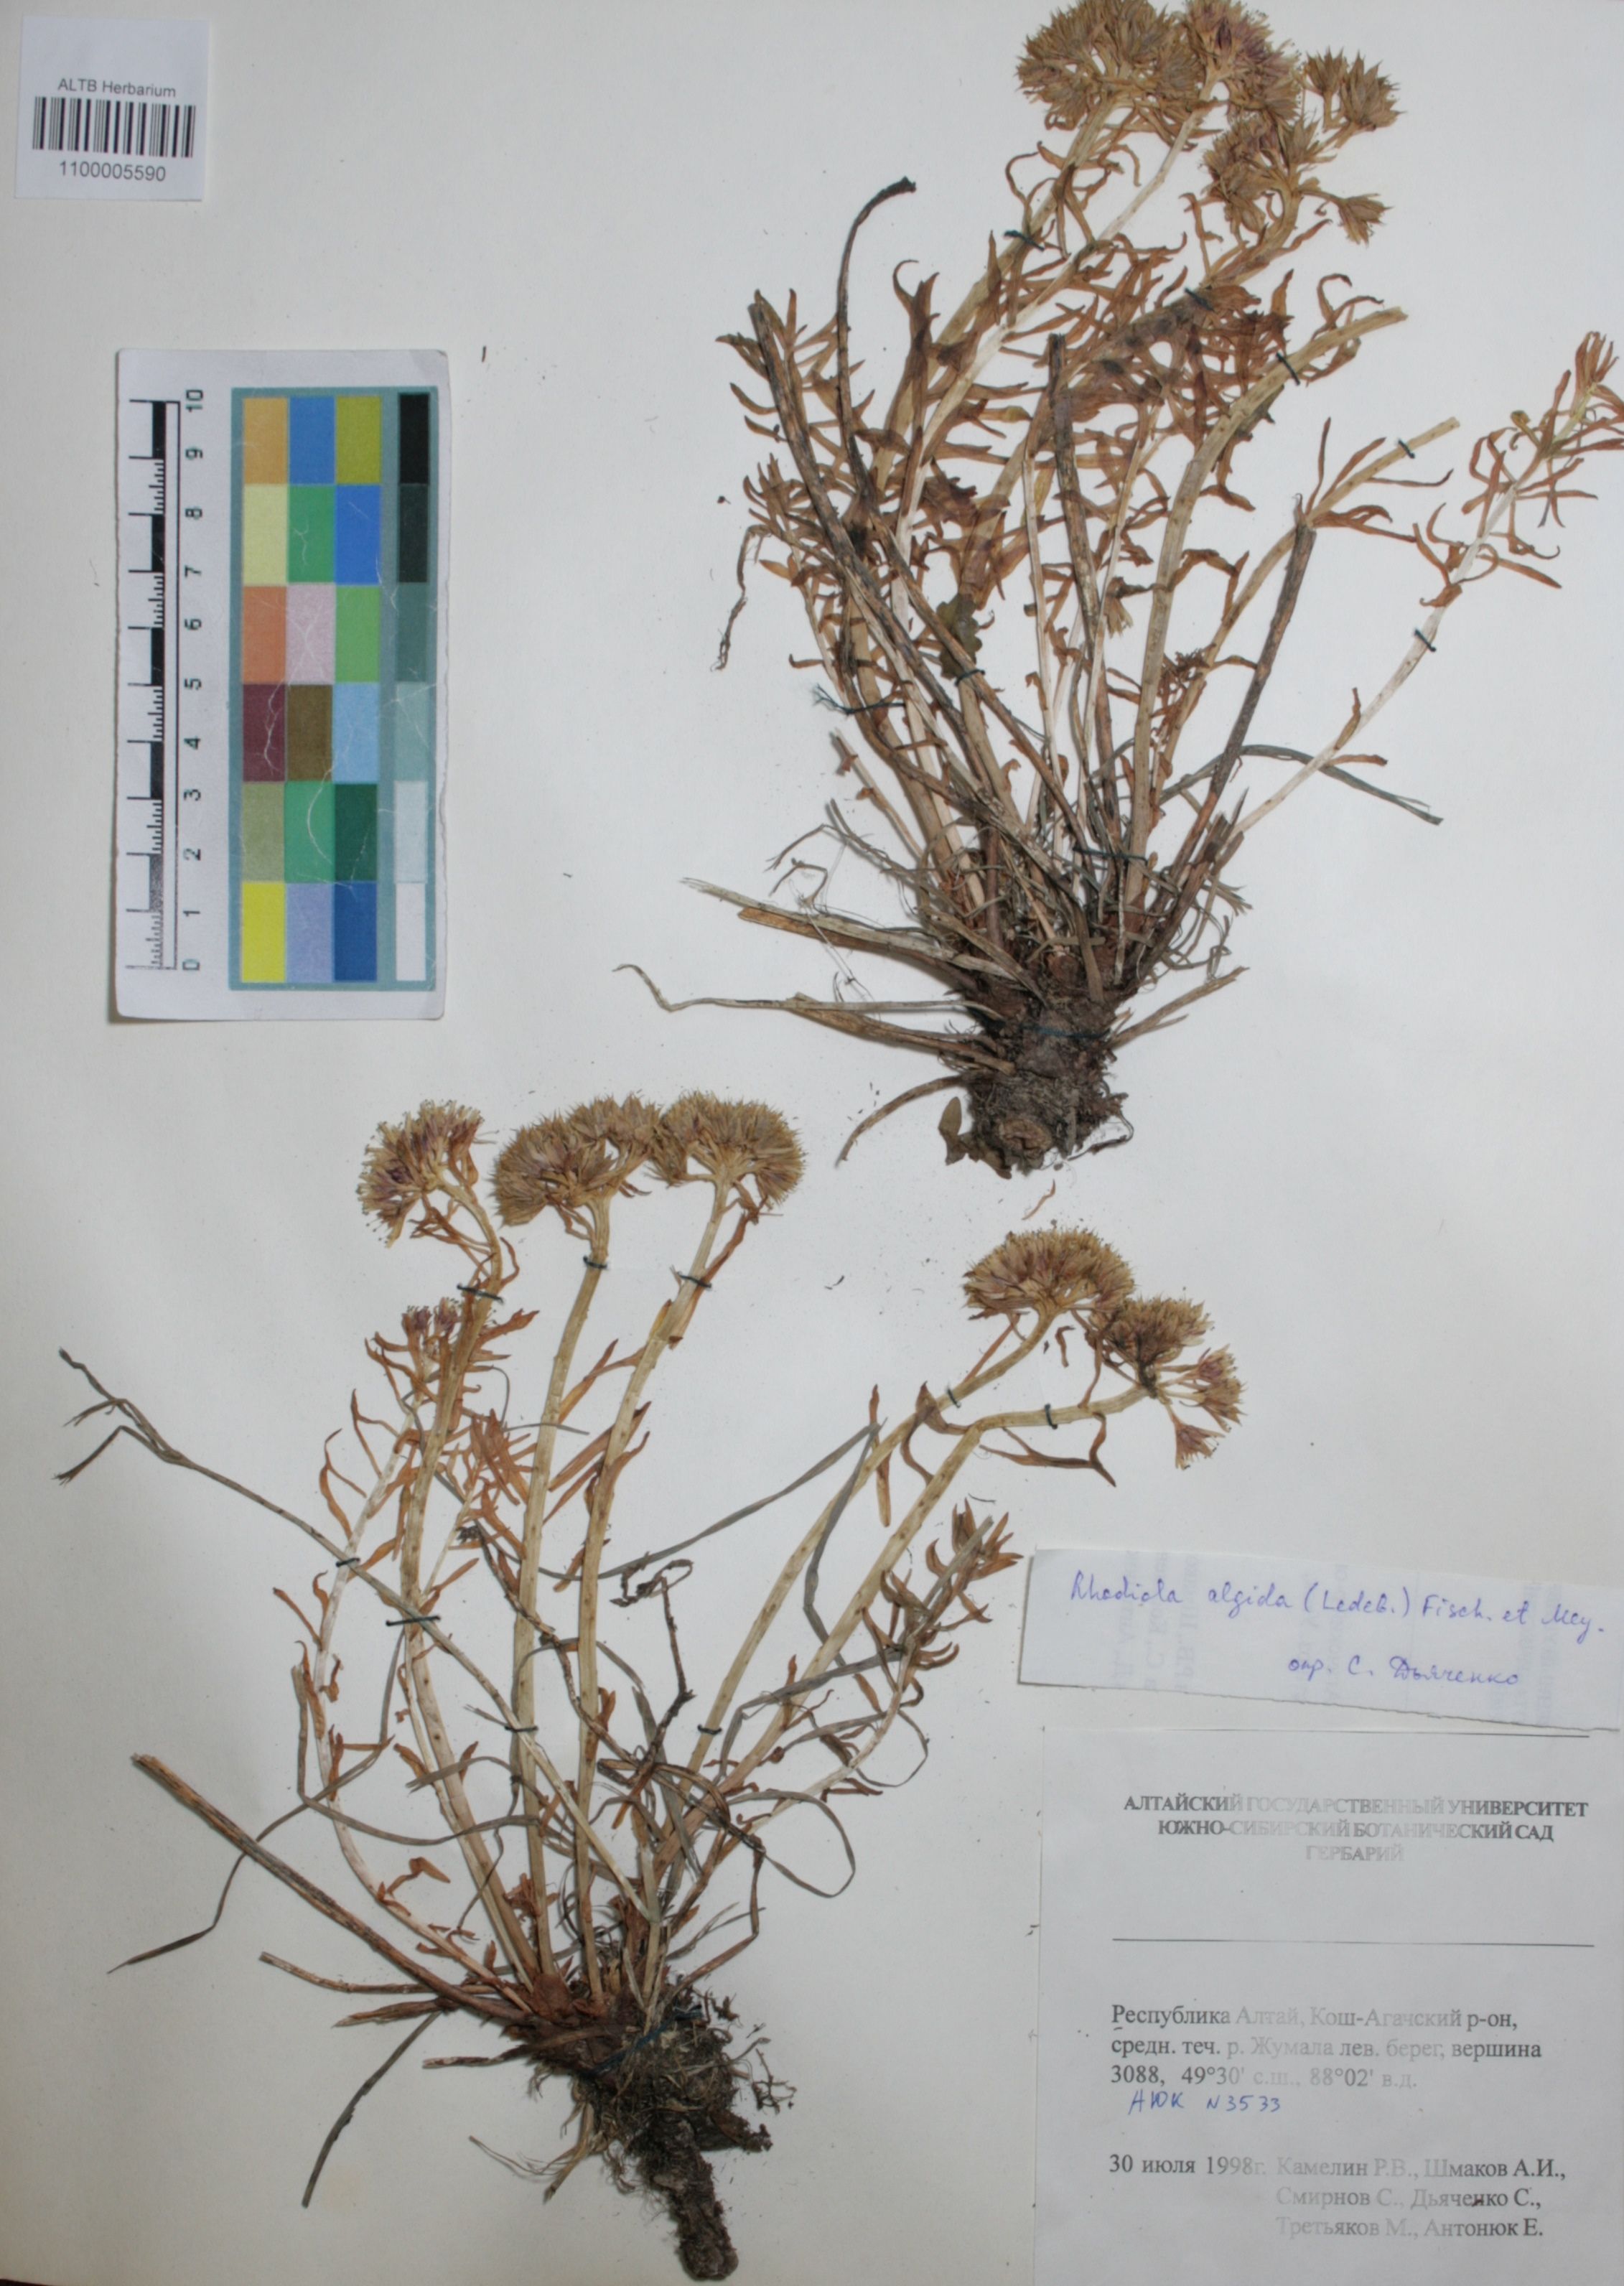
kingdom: Plantae
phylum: Tracheophyta
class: Magnoliopsida
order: Saxifragales
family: Crassulaceae
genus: Rhodiola
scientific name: Rhodiola algida
